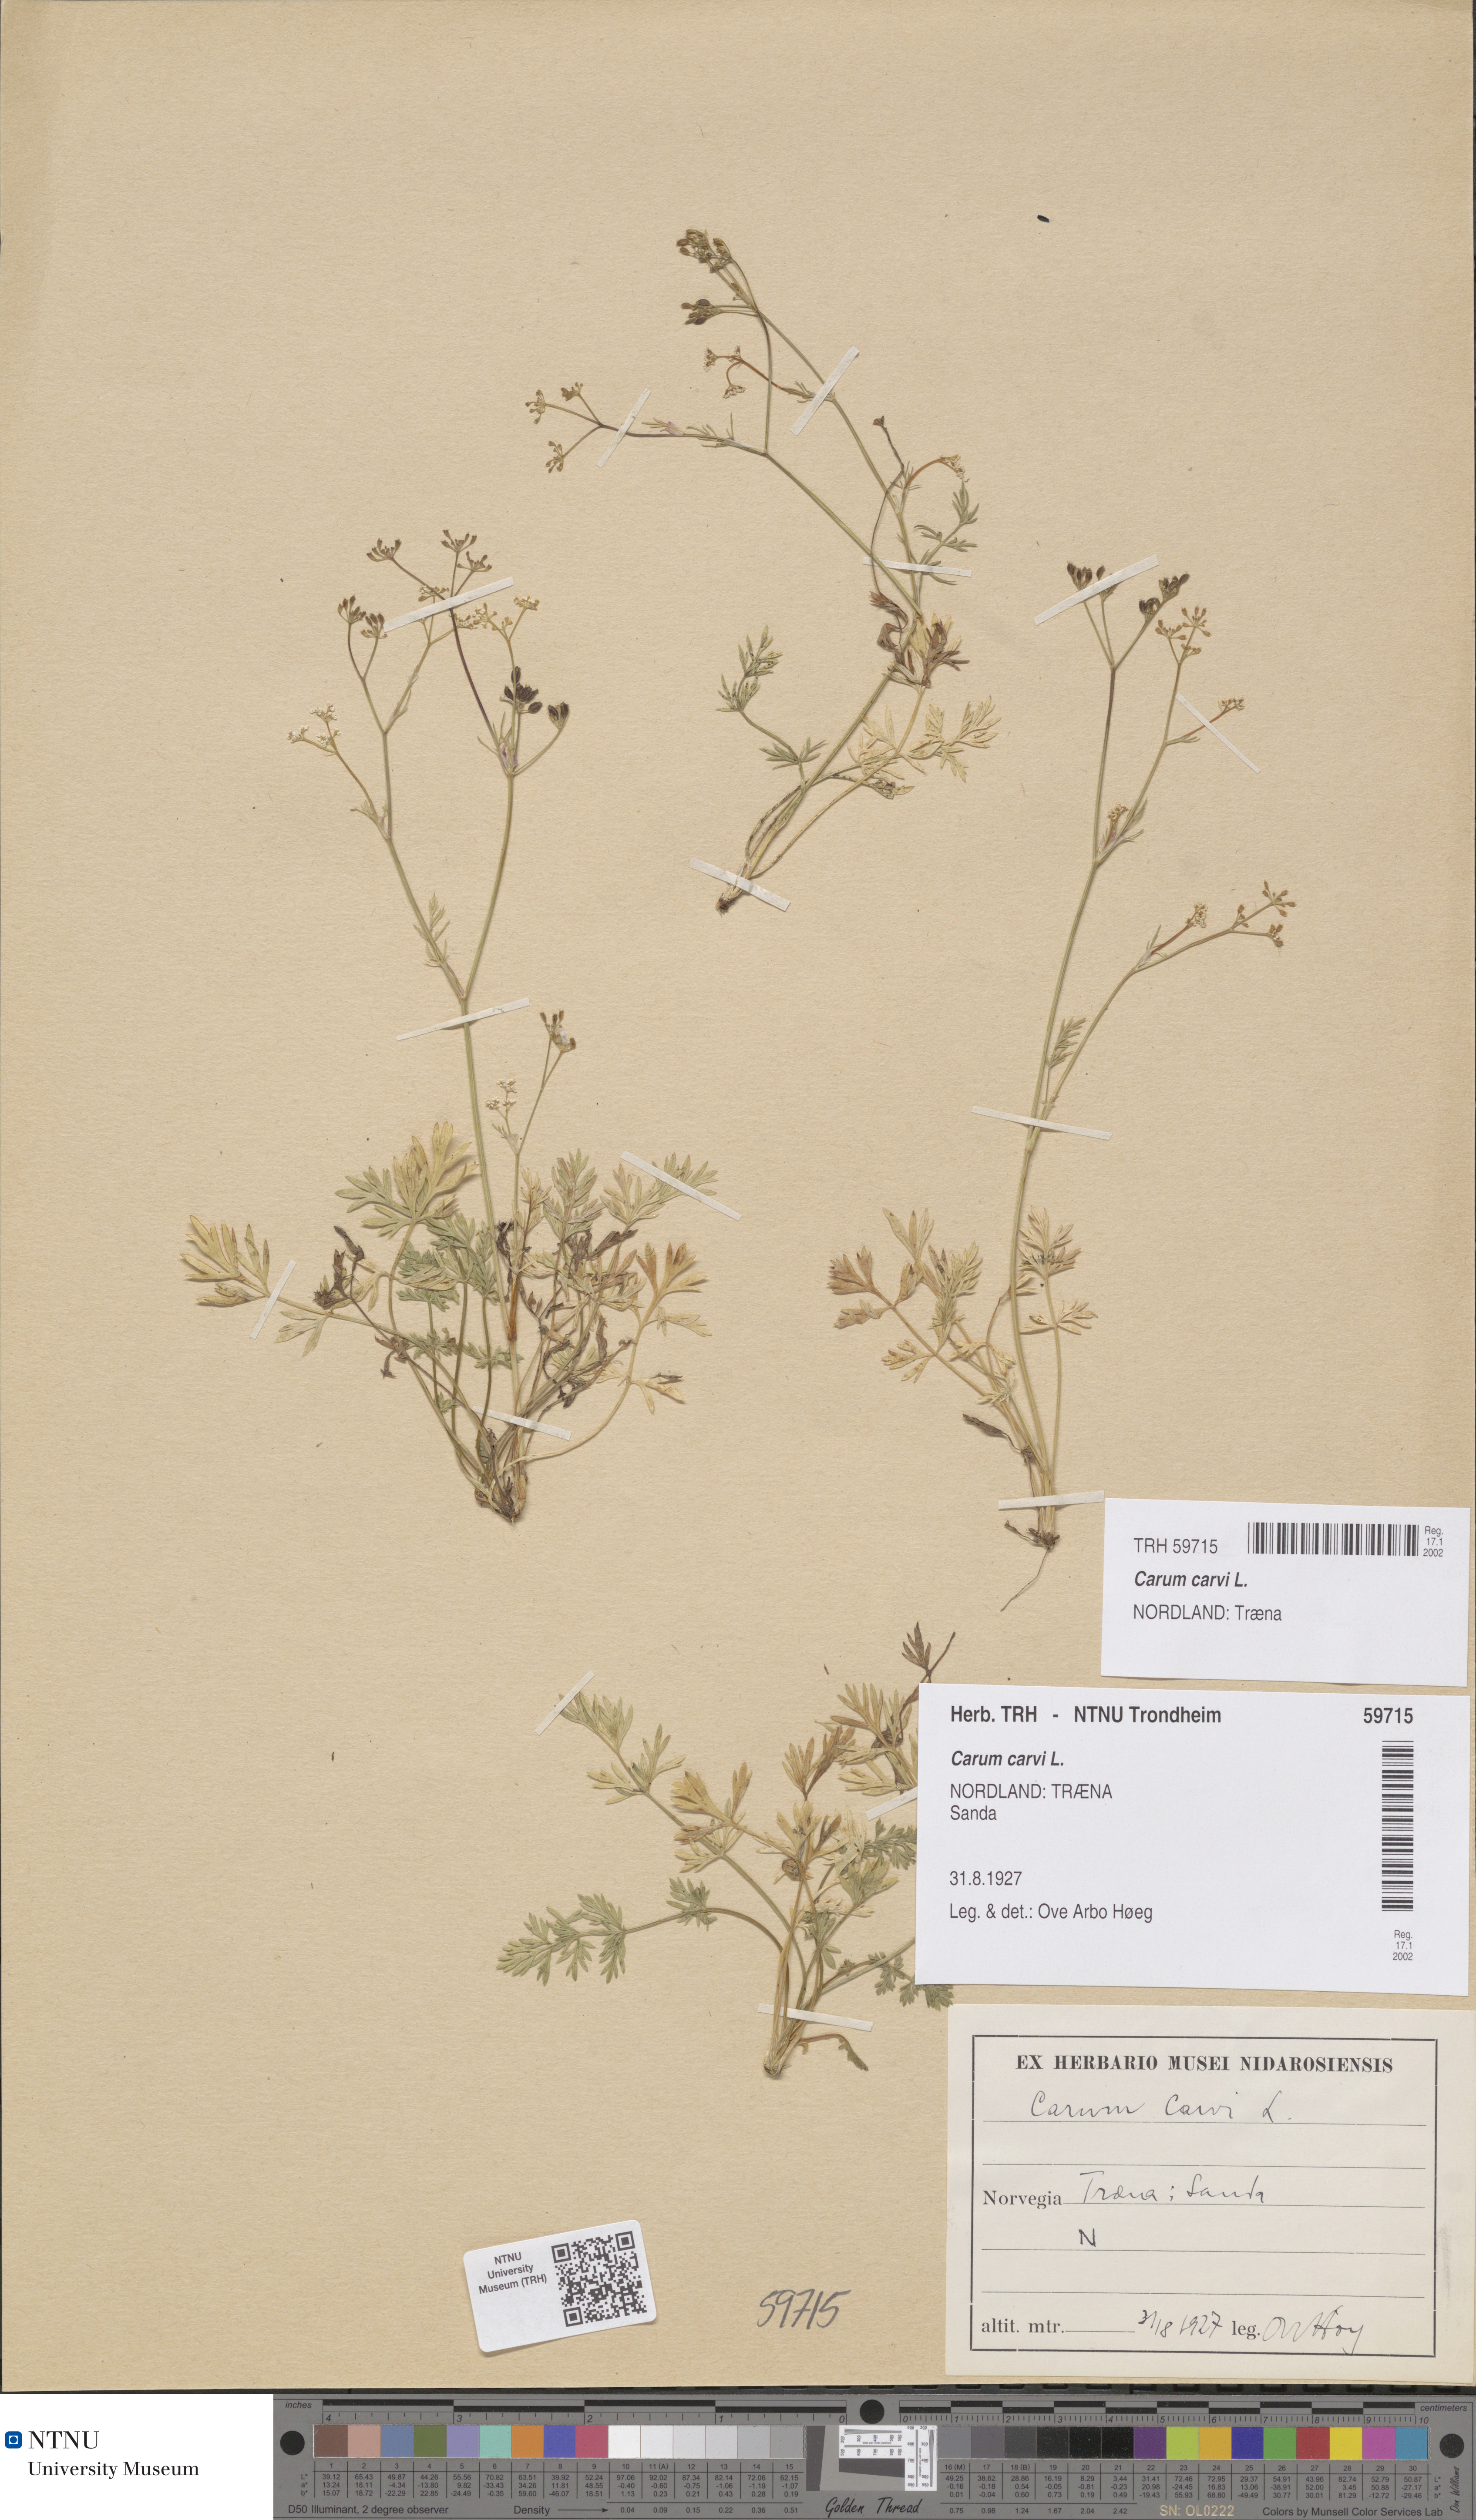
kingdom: Plantae
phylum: Tracheophyta
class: Magnoliopsida
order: Apiales
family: Apiaceae
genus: Carum
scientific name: Carum carvi
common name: Caraway
